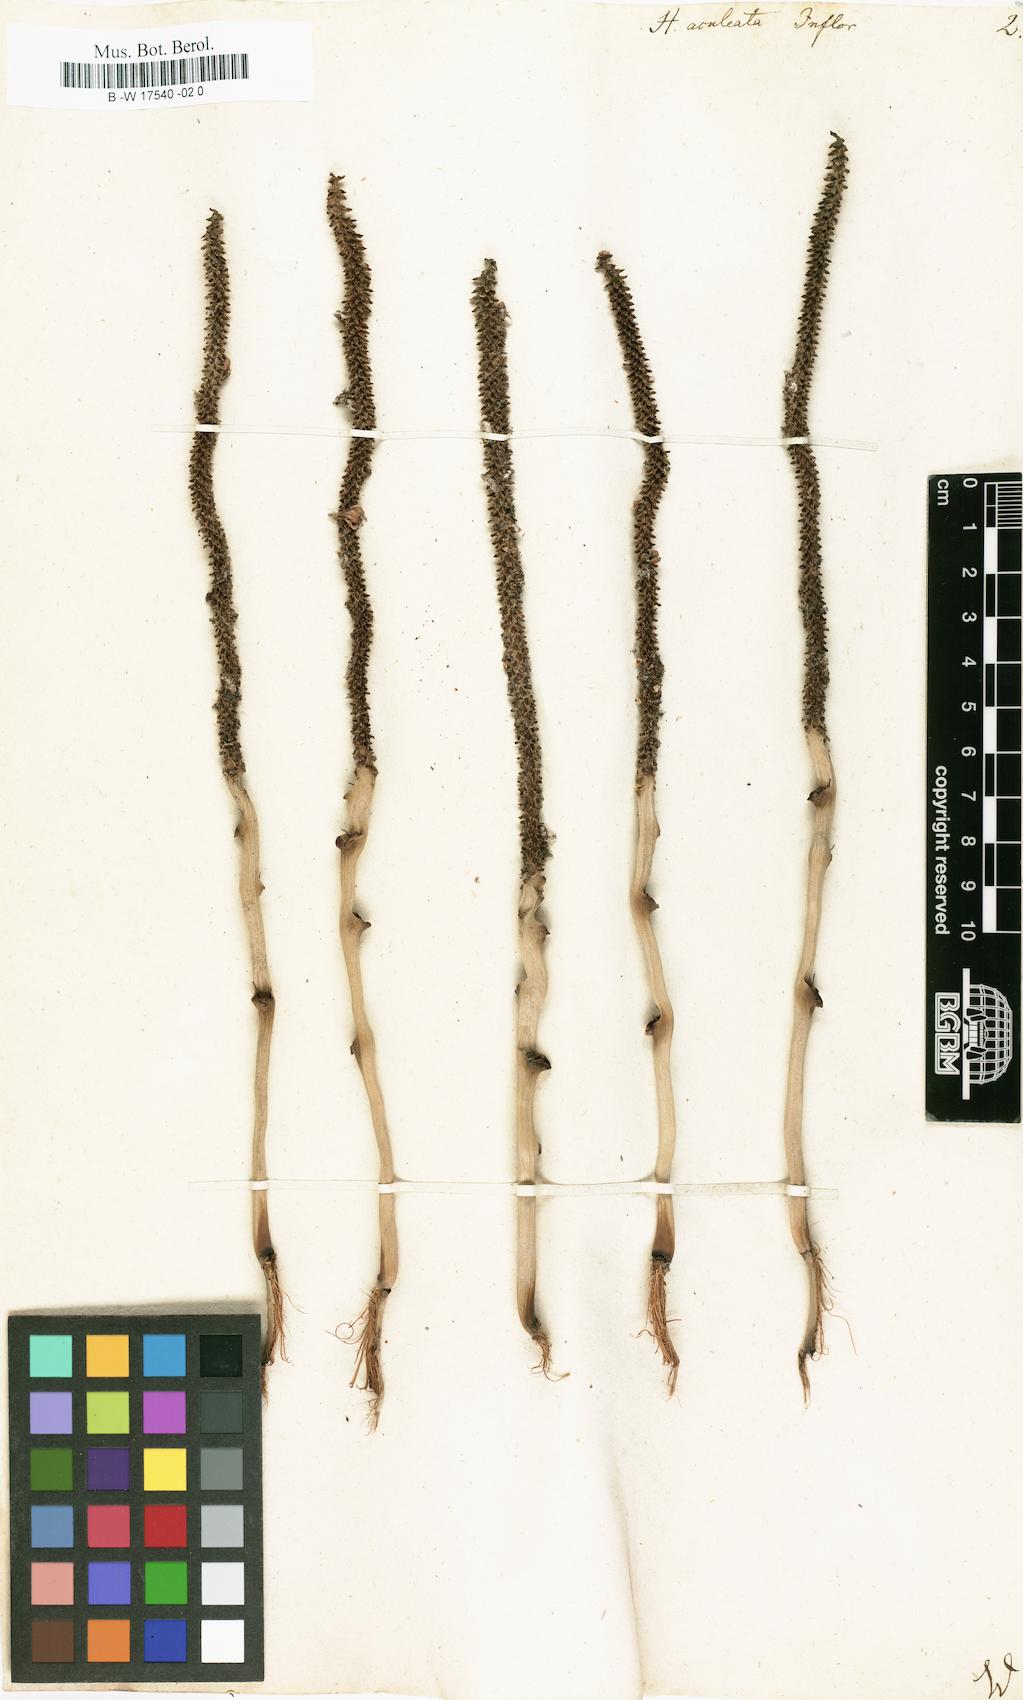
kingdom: Plantae
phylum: Tracheophyta
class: Magnoliopsida
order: Malpighiales
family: Euphorbiaceae
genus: Homonoia
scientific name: Homonoia
